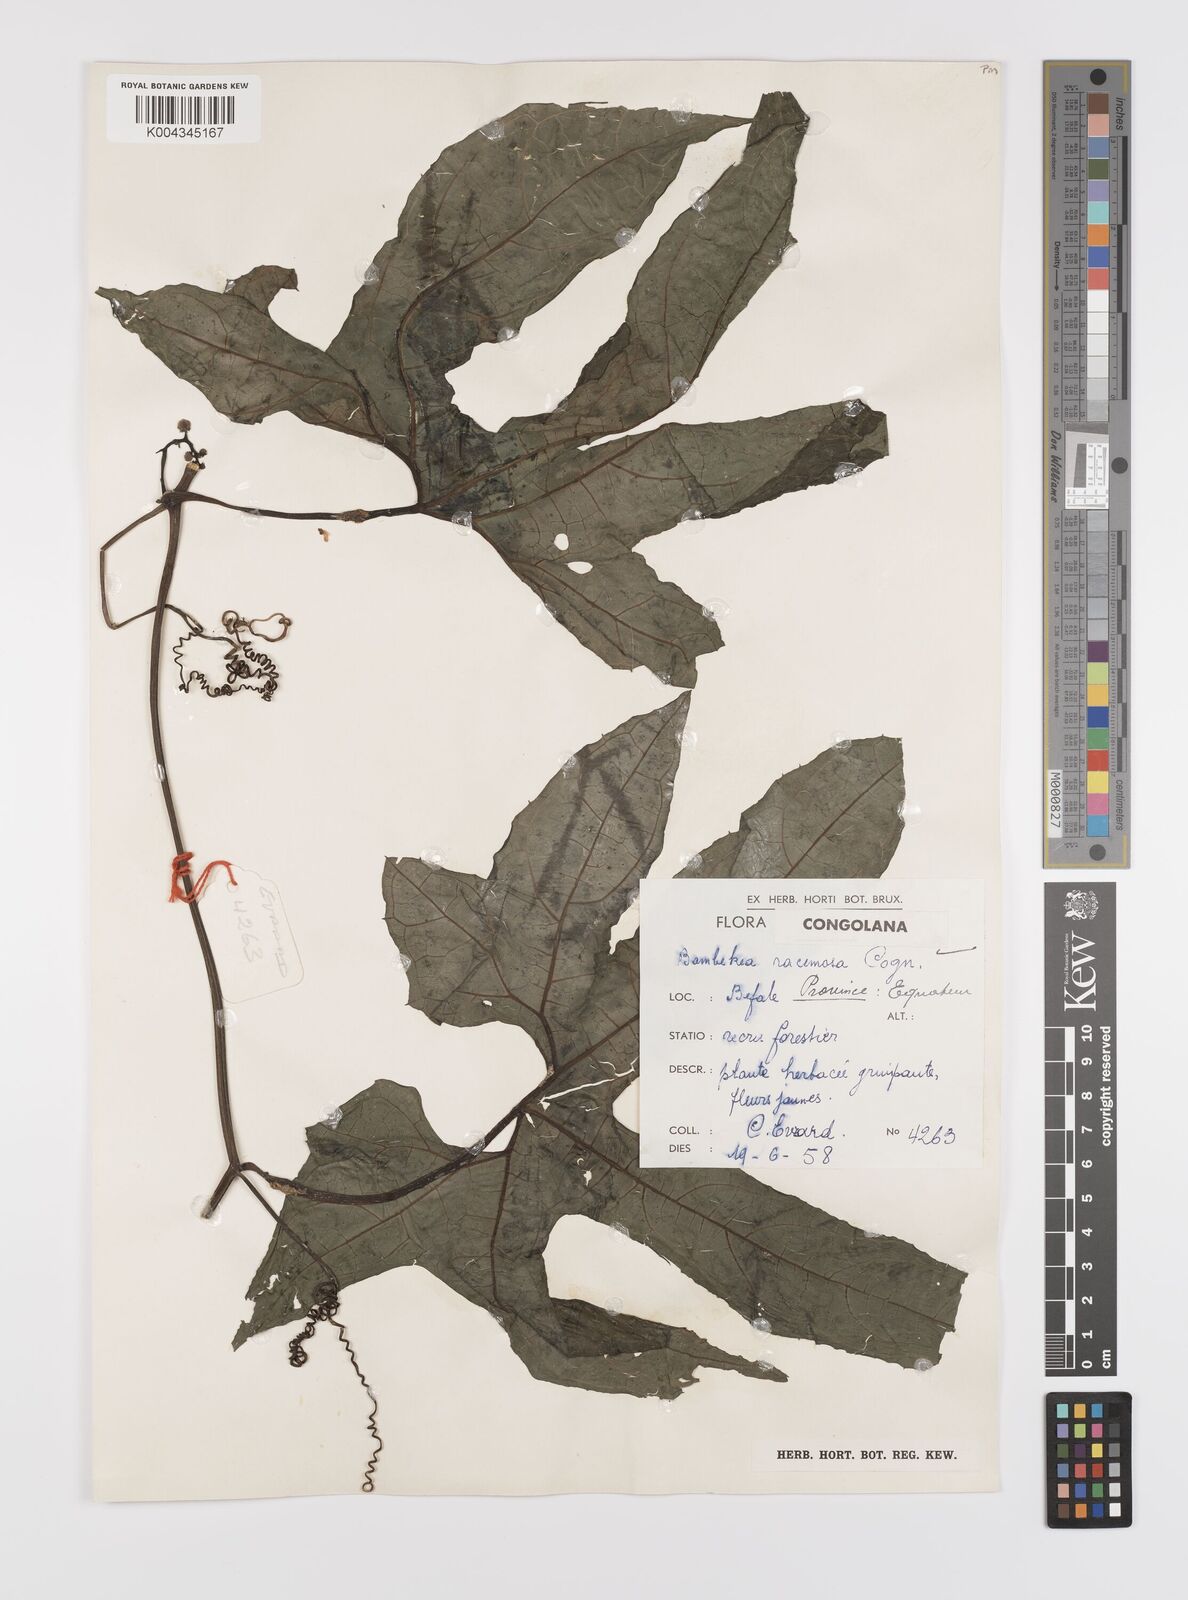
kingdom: Plantae
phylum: Tracheophyta
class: Magnoliopsida
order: Cucurbitales
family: Cucurbitaceae
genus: Bambekea
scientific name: Bambekea racemosa
